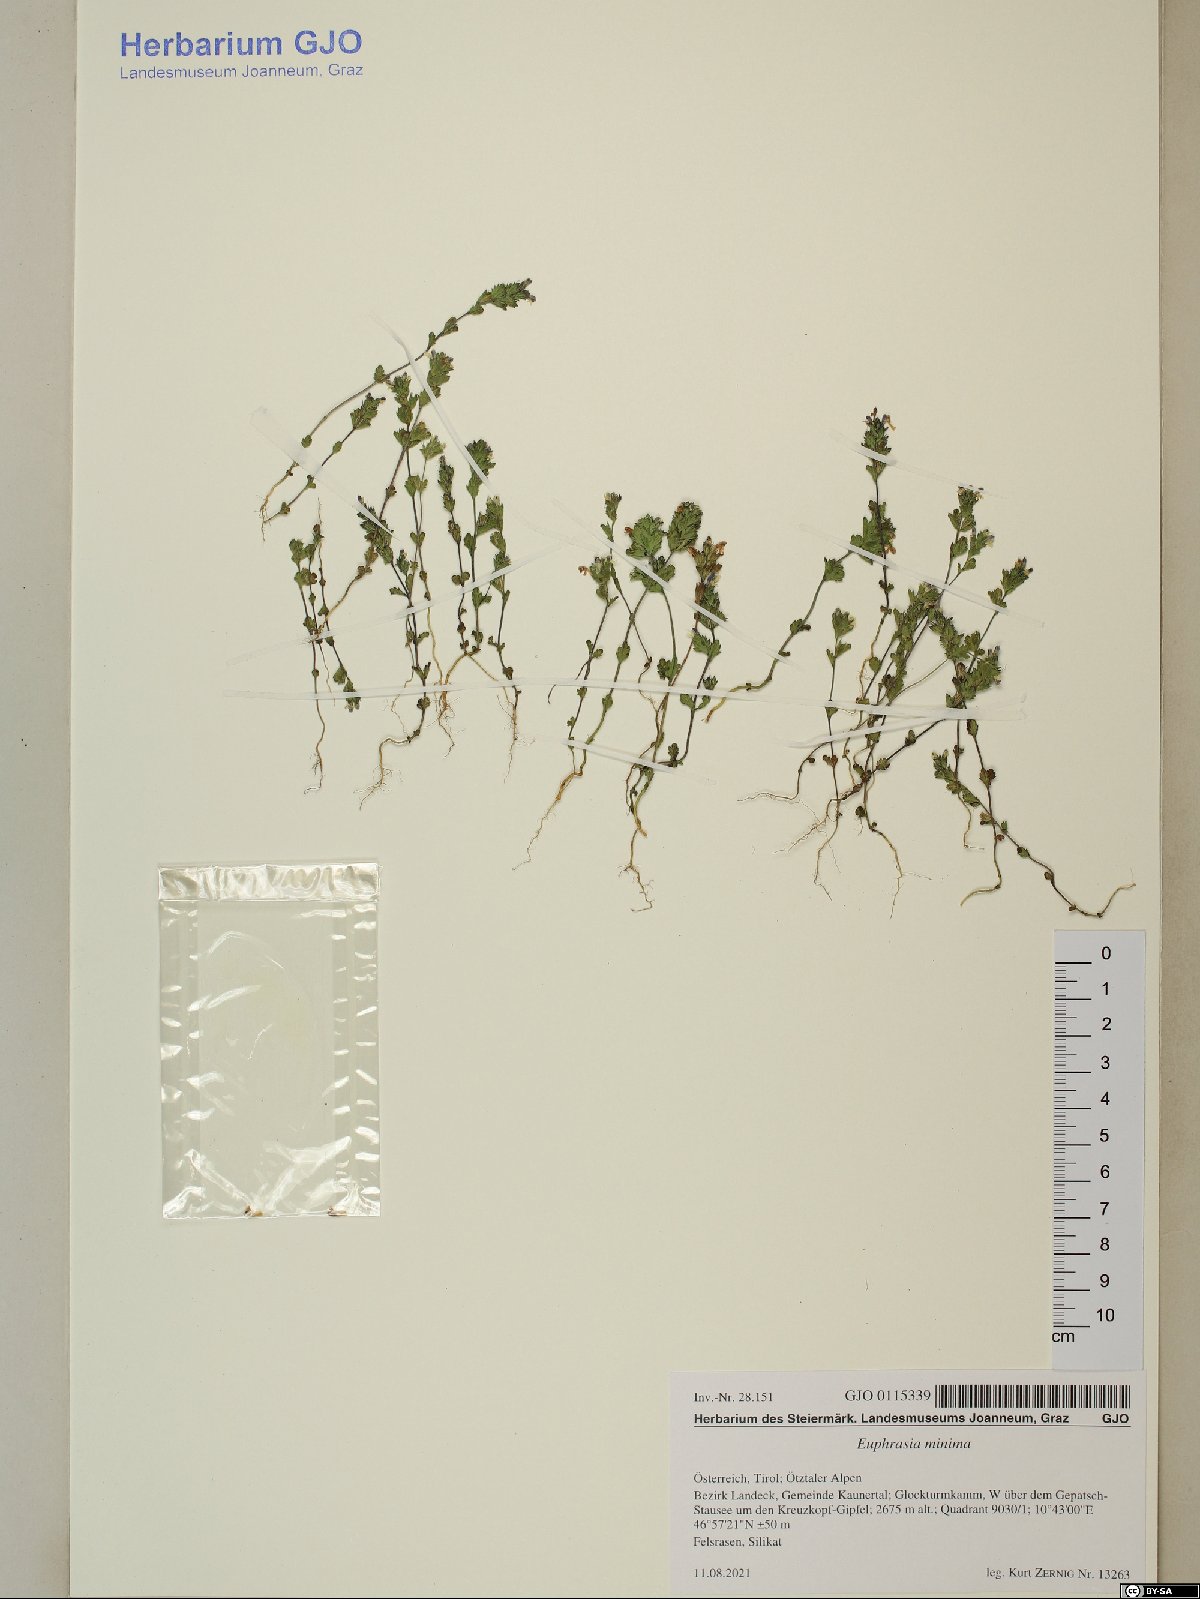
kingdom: Plantae
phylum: Tracheophyta
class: Magnoliopsida
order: Lamiales
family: Orobanchaceae
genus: Euphrasia
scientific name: Euphrasia minima
